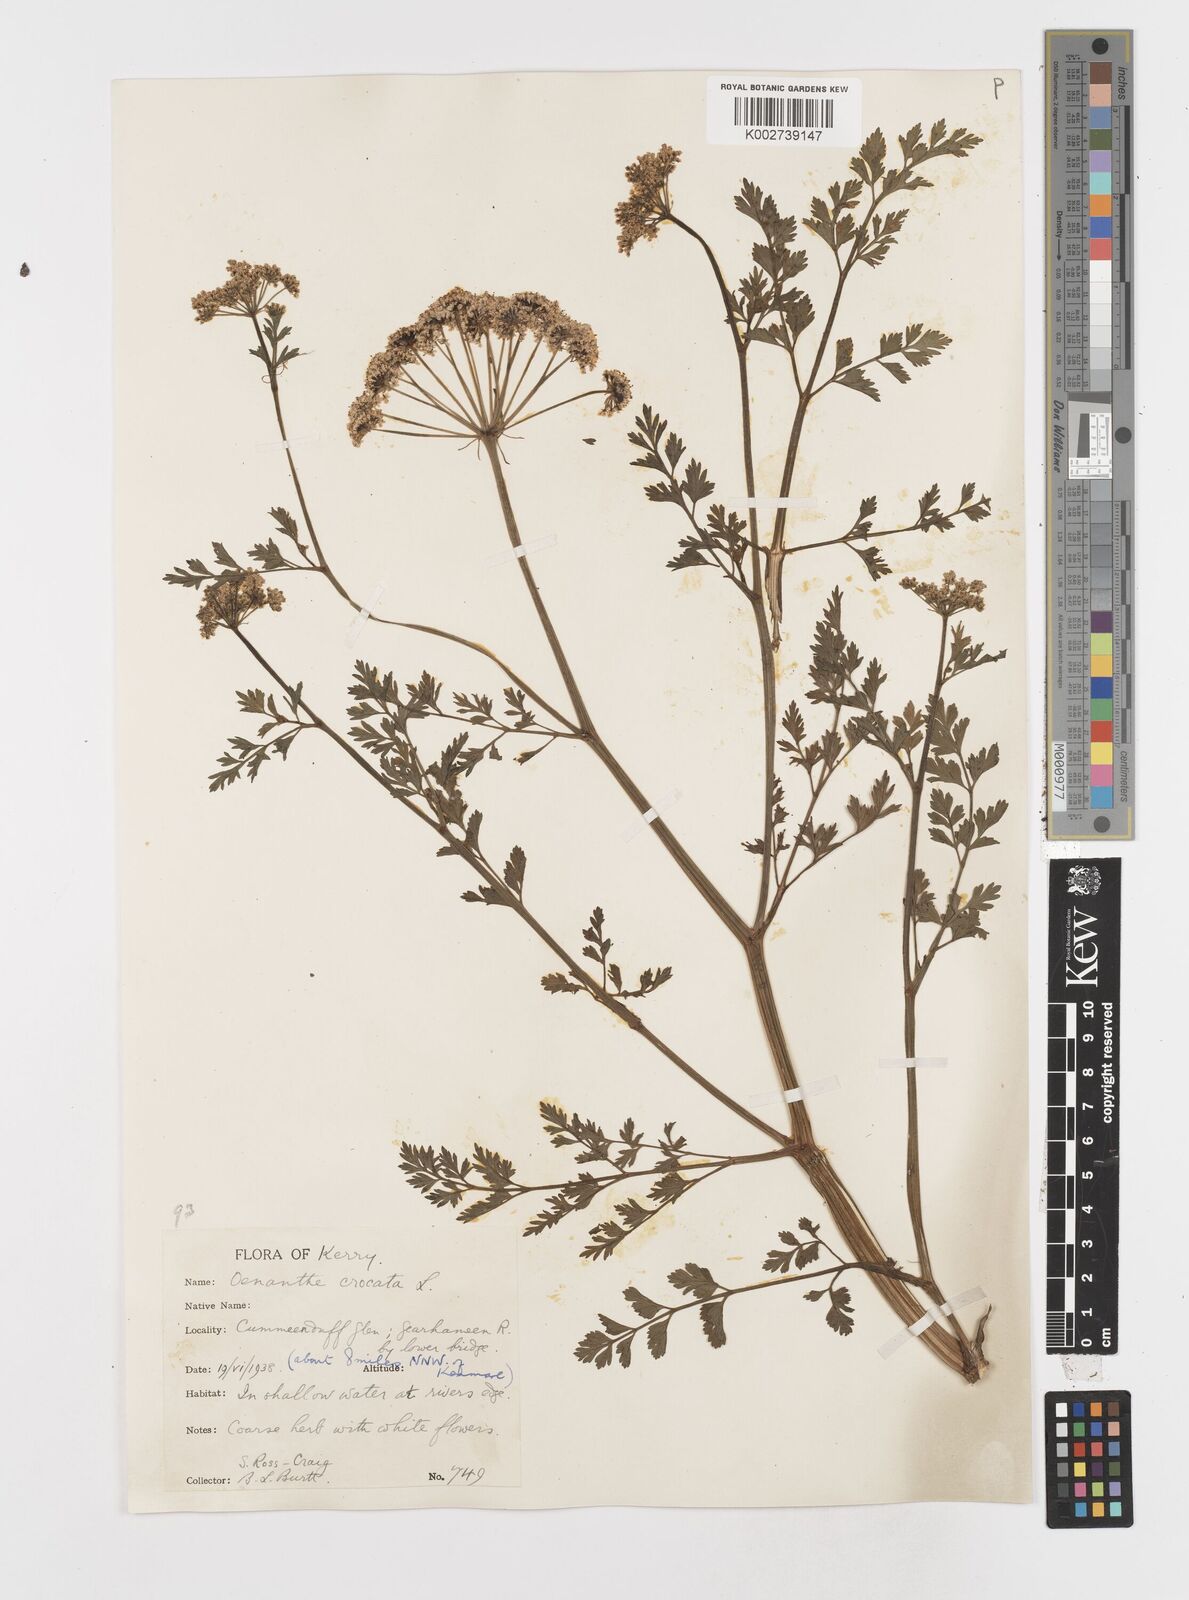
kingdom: Plantae
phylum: Tracheophyta
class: Magnoliopsida
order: Apiales
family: Apiaceae
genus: Oenanthe
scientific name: Oenanthe crocata
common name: Hemlock water-dropwort
